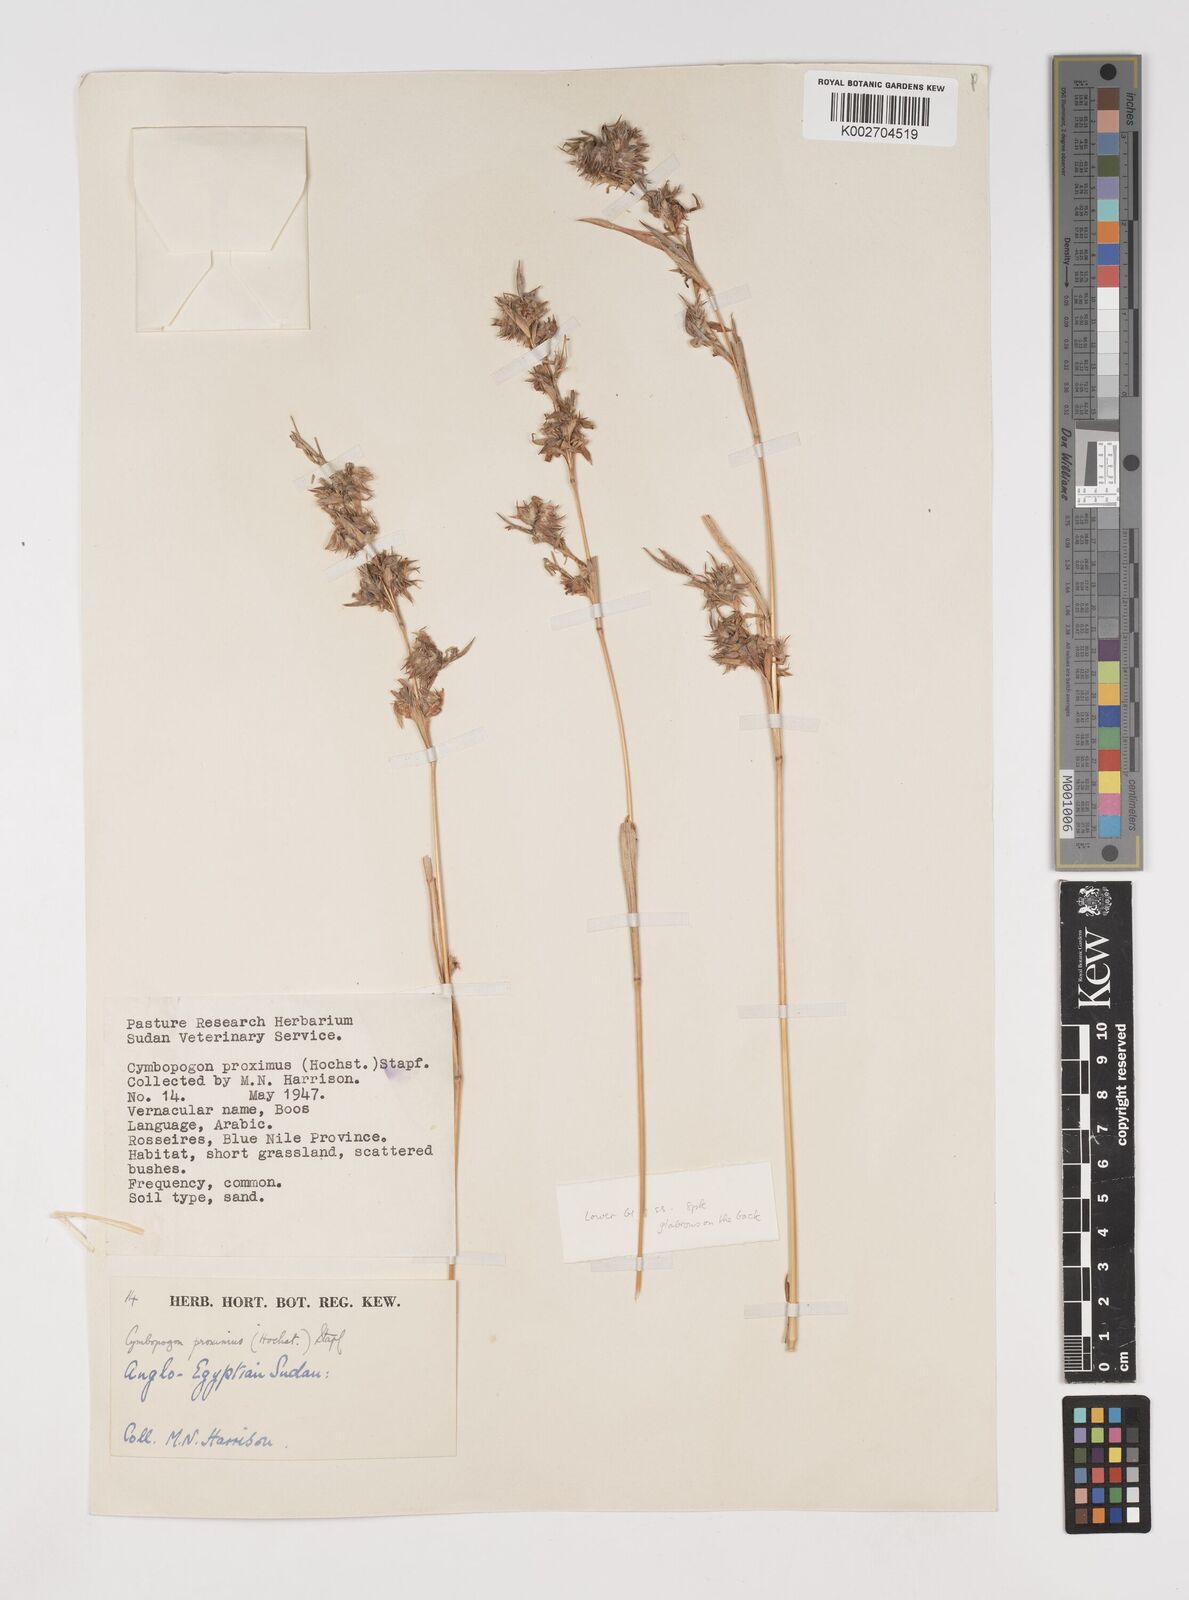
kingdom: Plantae
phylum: Tracheophyta
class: Liliopsida
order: Poales
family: Poaceae
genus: Cymbopogon
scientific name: Cymbopogon schoenanthus
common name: Geranium grass
